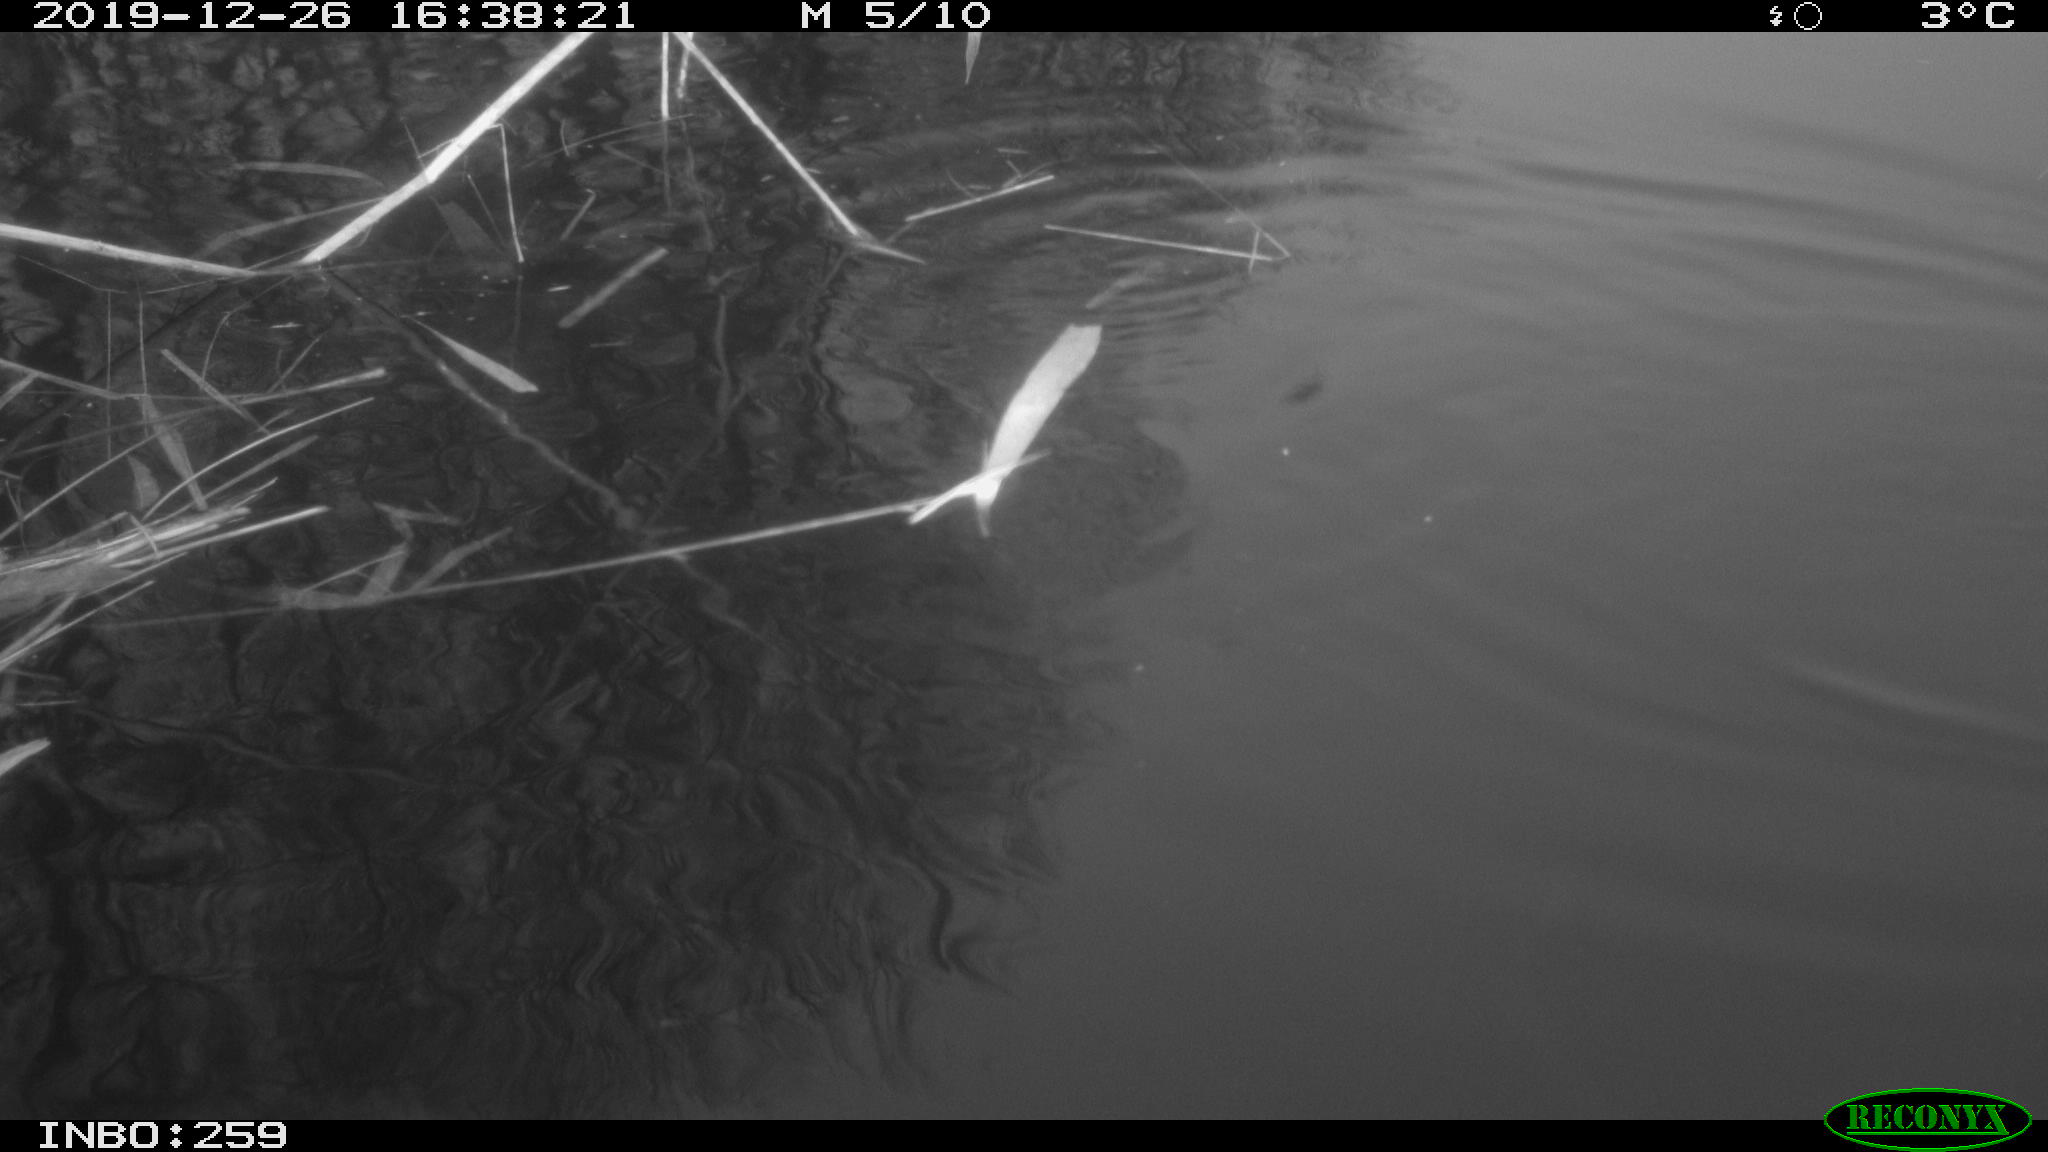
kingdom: Animalia
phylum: Chordata
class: Aves
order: Gruiformes
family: Rallidae
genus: Gallinula
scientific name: Gallinula chloropus
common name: Common moorhen
